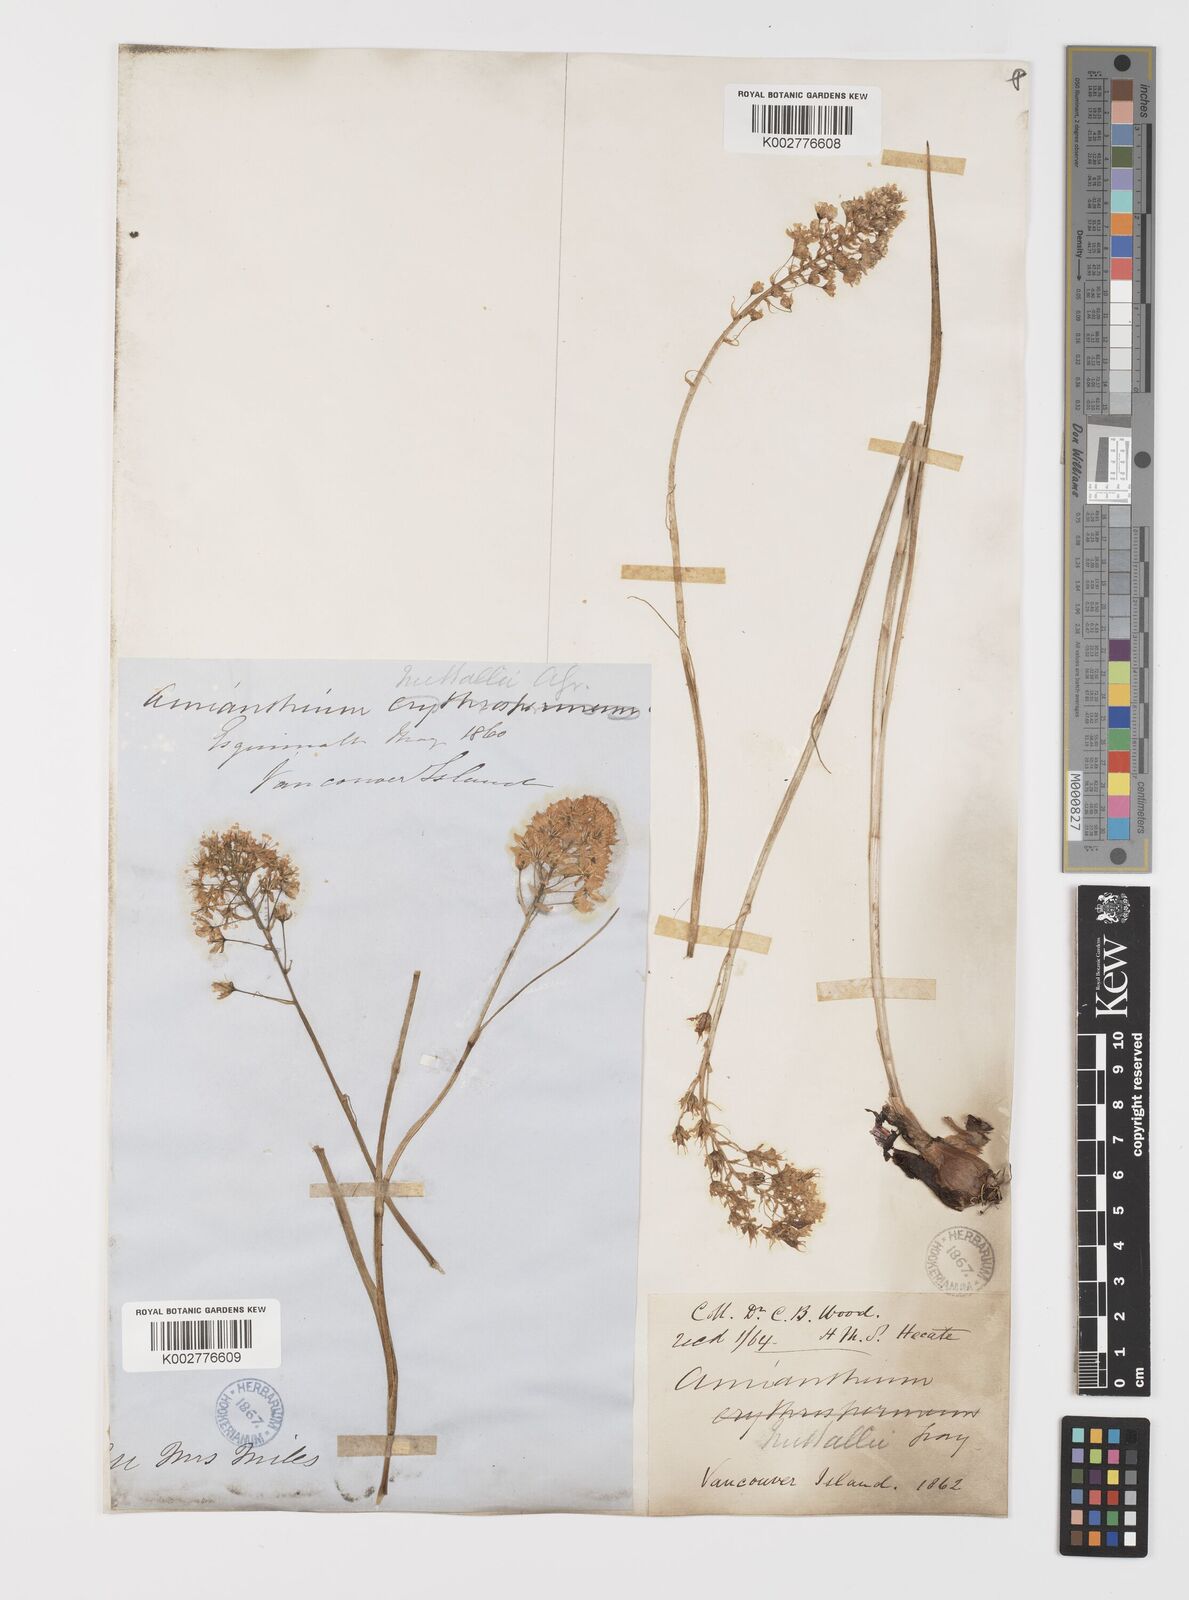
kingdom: Plantae
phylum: Tracheophyta
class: Liliopsida
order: Liliales
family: Melanthiaceae
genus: Toxicoscordion
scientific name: Toxicoscordion venenosum
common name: Meadow death camas
